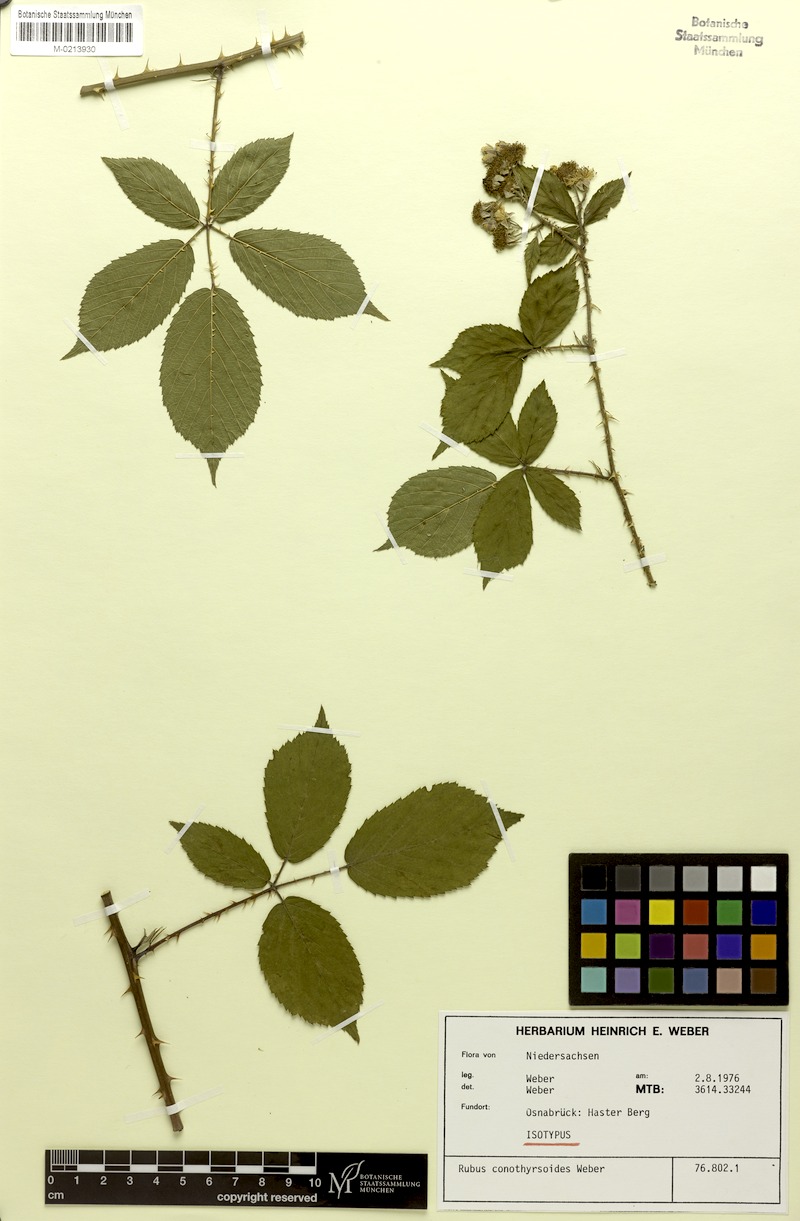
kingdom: Plantae
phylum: Tracheophyta
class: Magnoliopsida
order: Rosales
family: Rosaceae
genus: Rubus
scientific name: Rubus conothyrsoides
